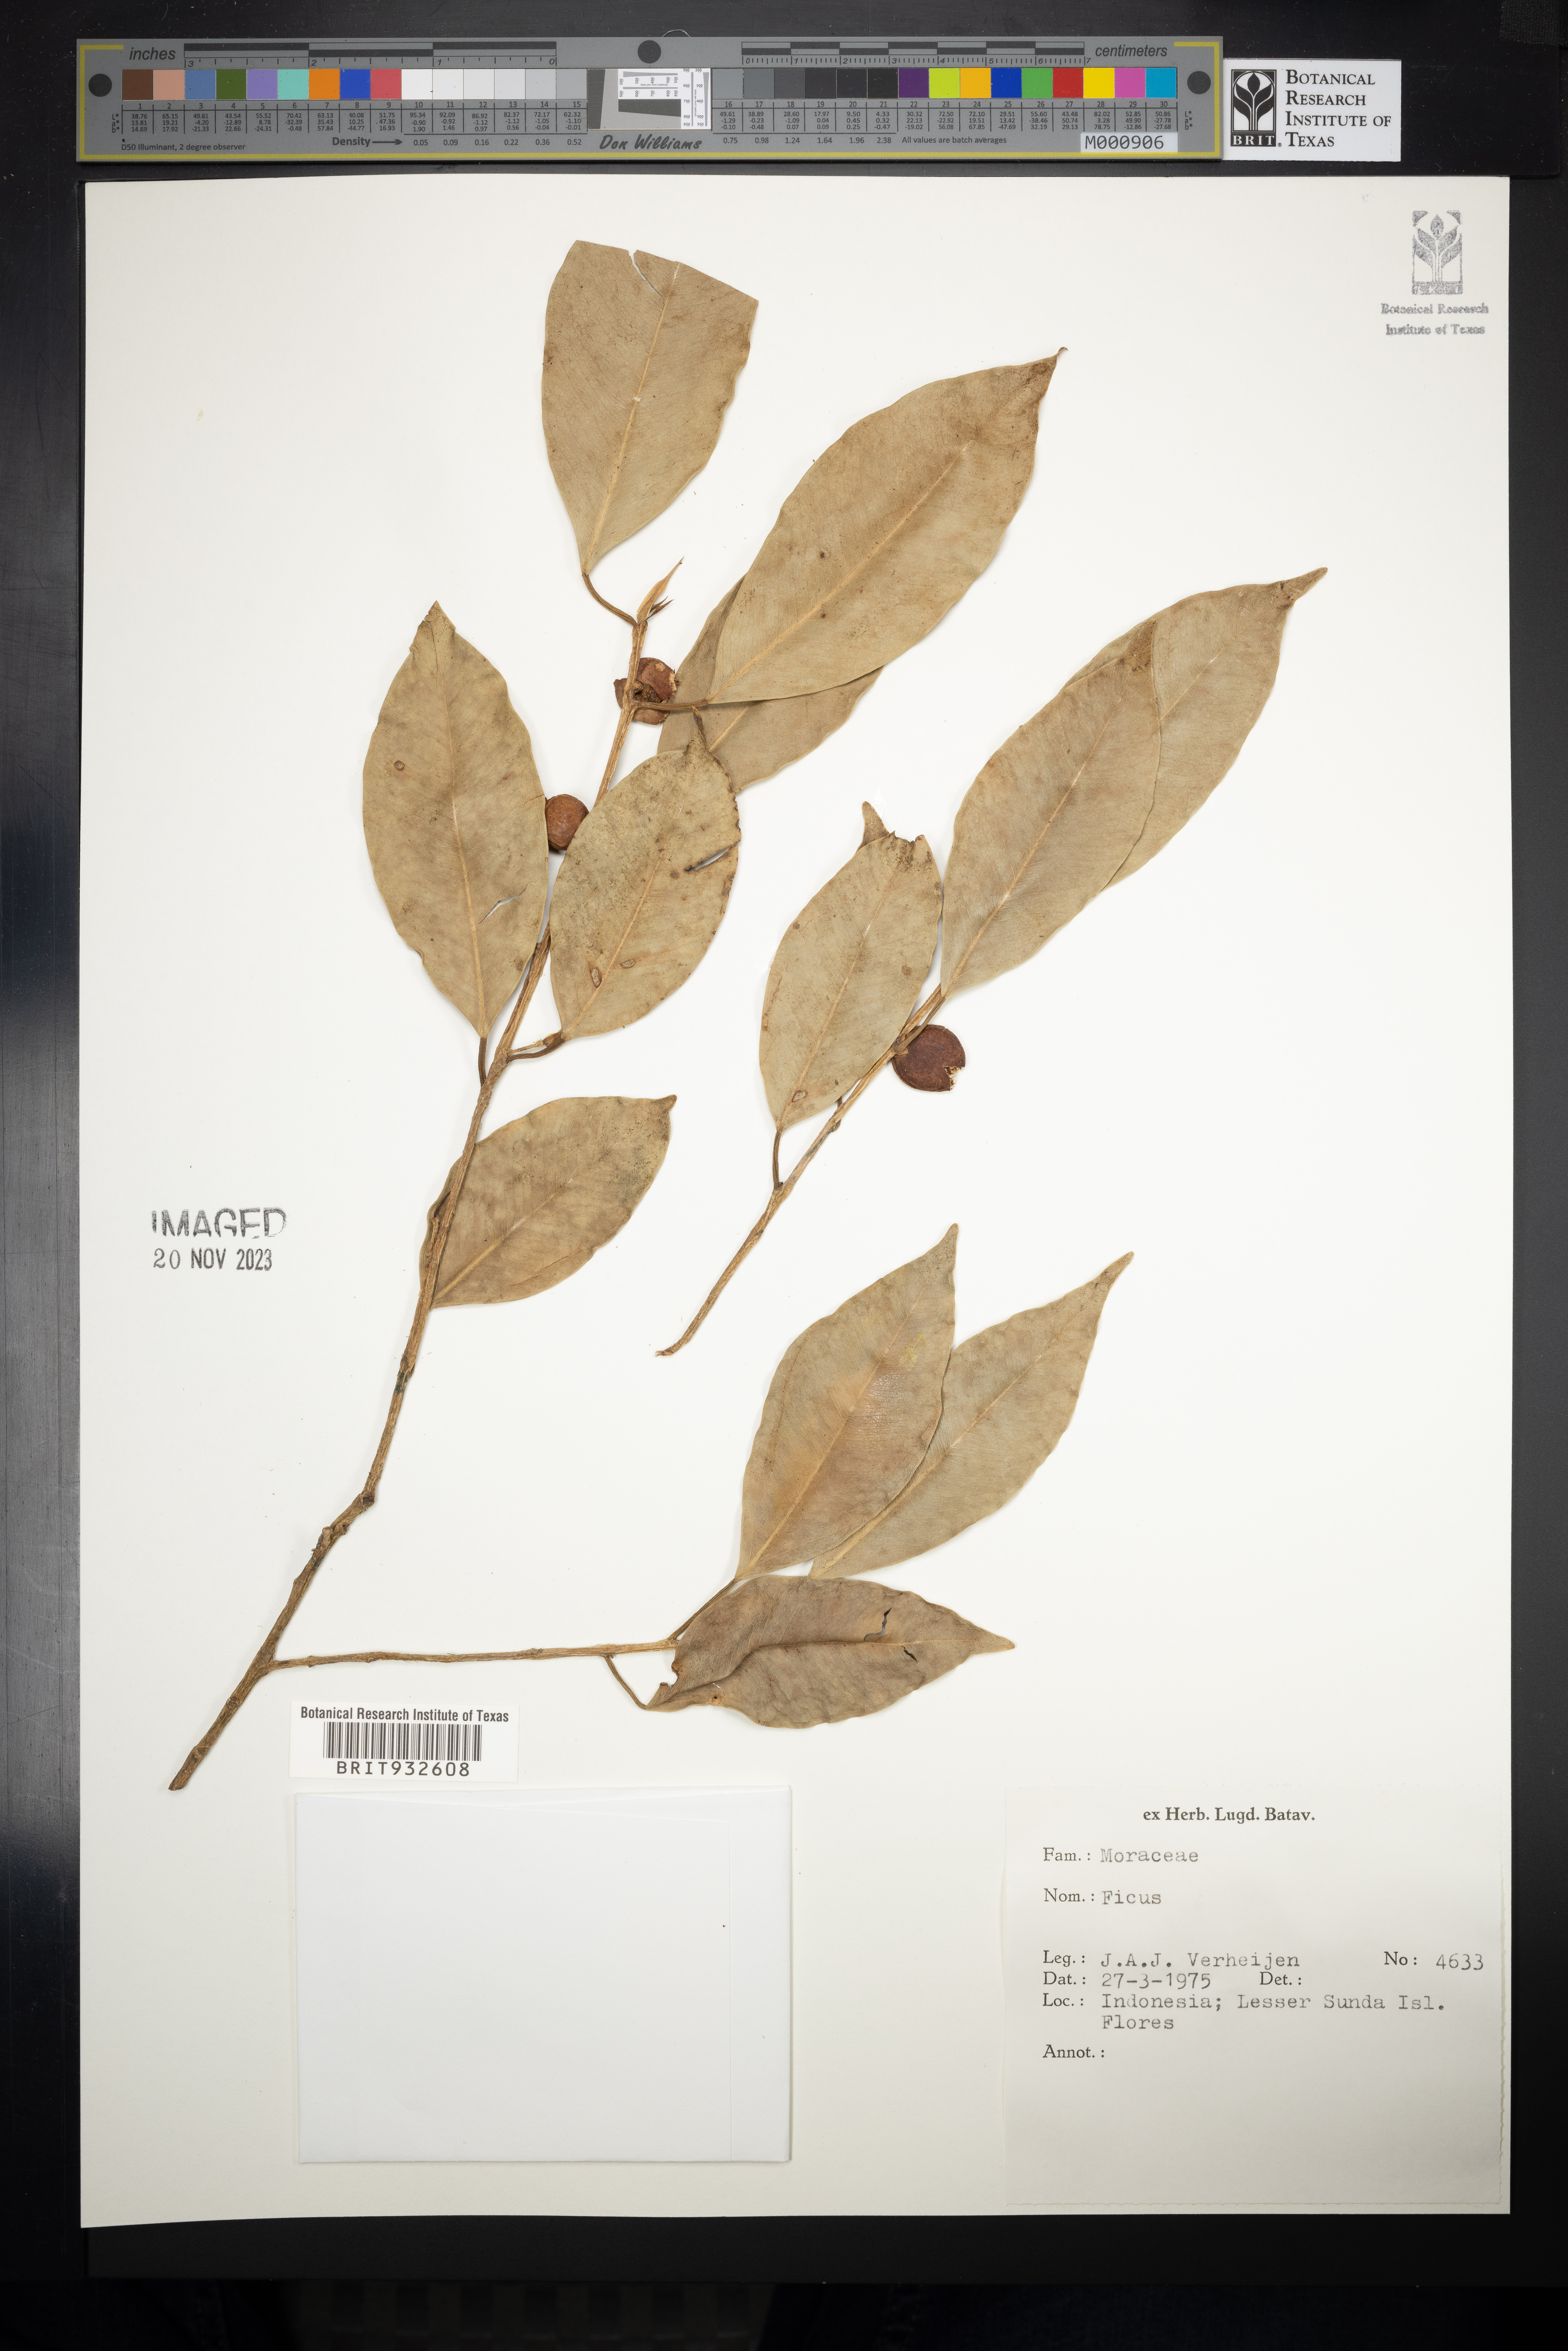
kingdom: Plantae
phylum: Tracheophyta
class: Magnoliopsida
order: Rosales
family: Moraceae
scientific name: Moraceae
